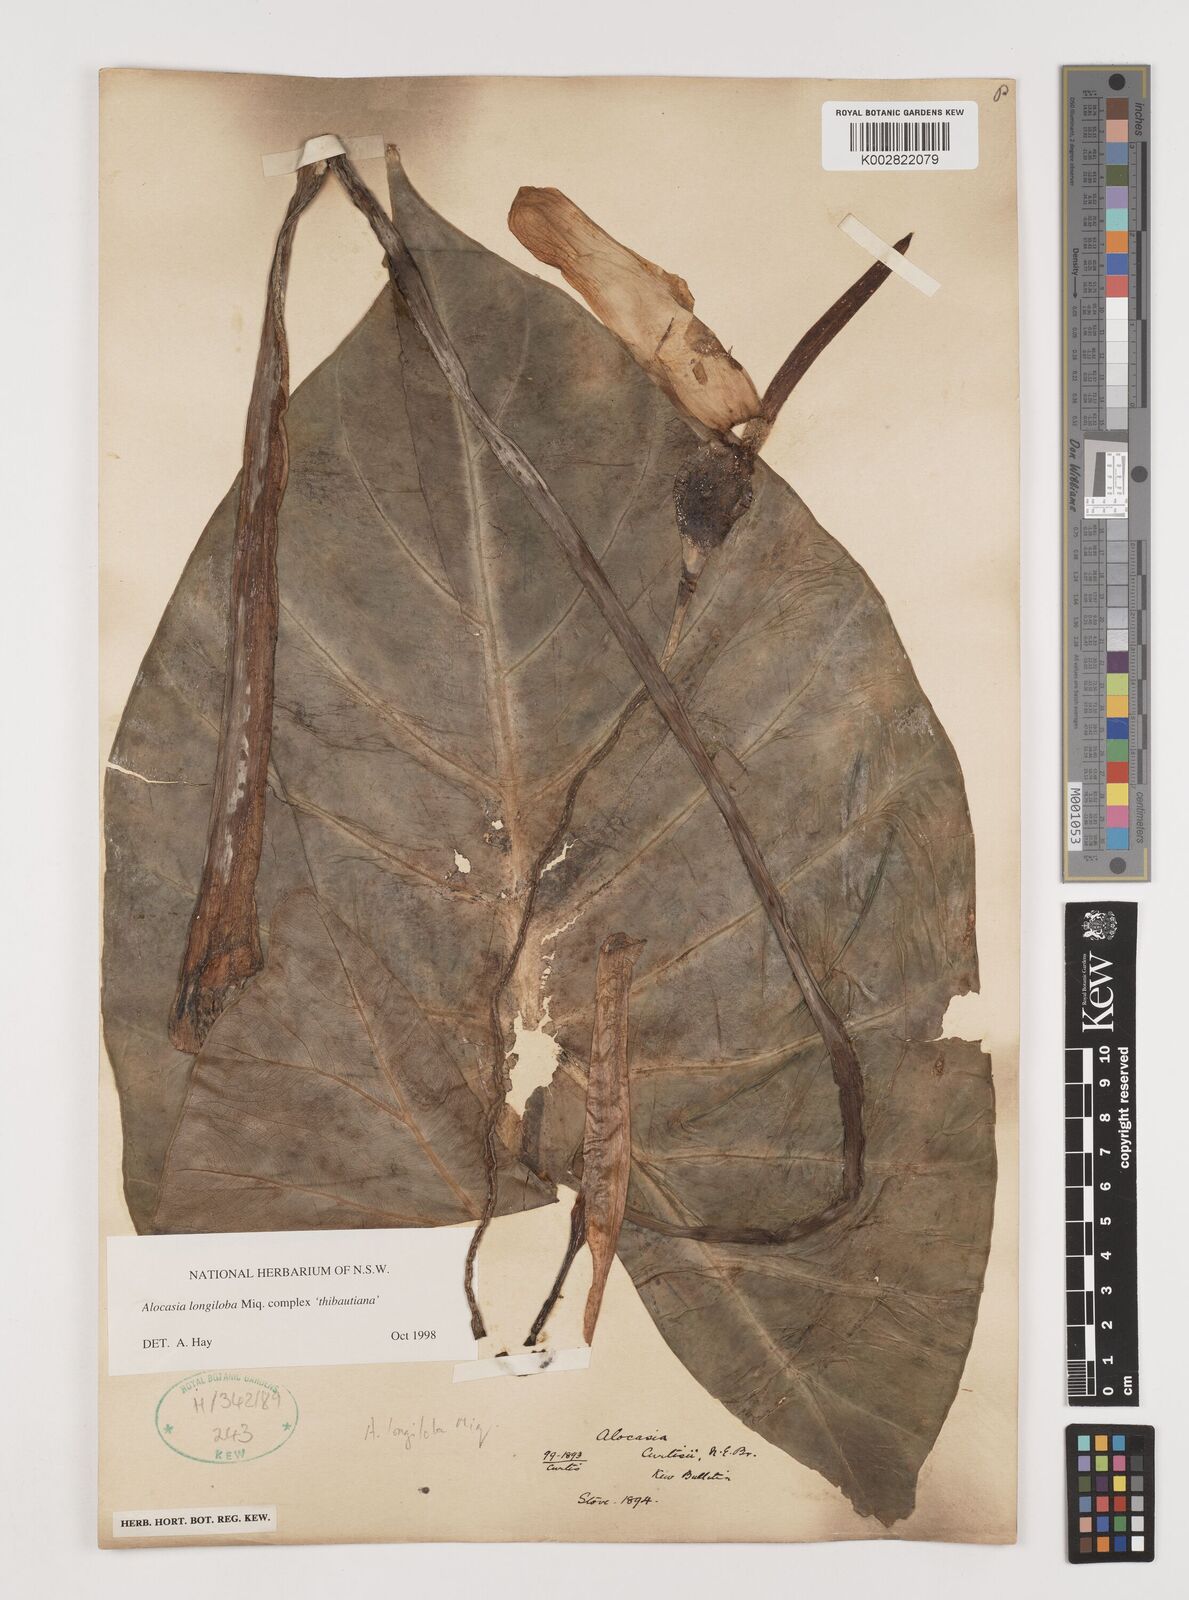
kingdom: Plantae
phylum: Tracheophyta
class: Liliopsida
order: Alismatales
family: Araceae
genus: Alocasia
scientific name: Alocasia longiloba
